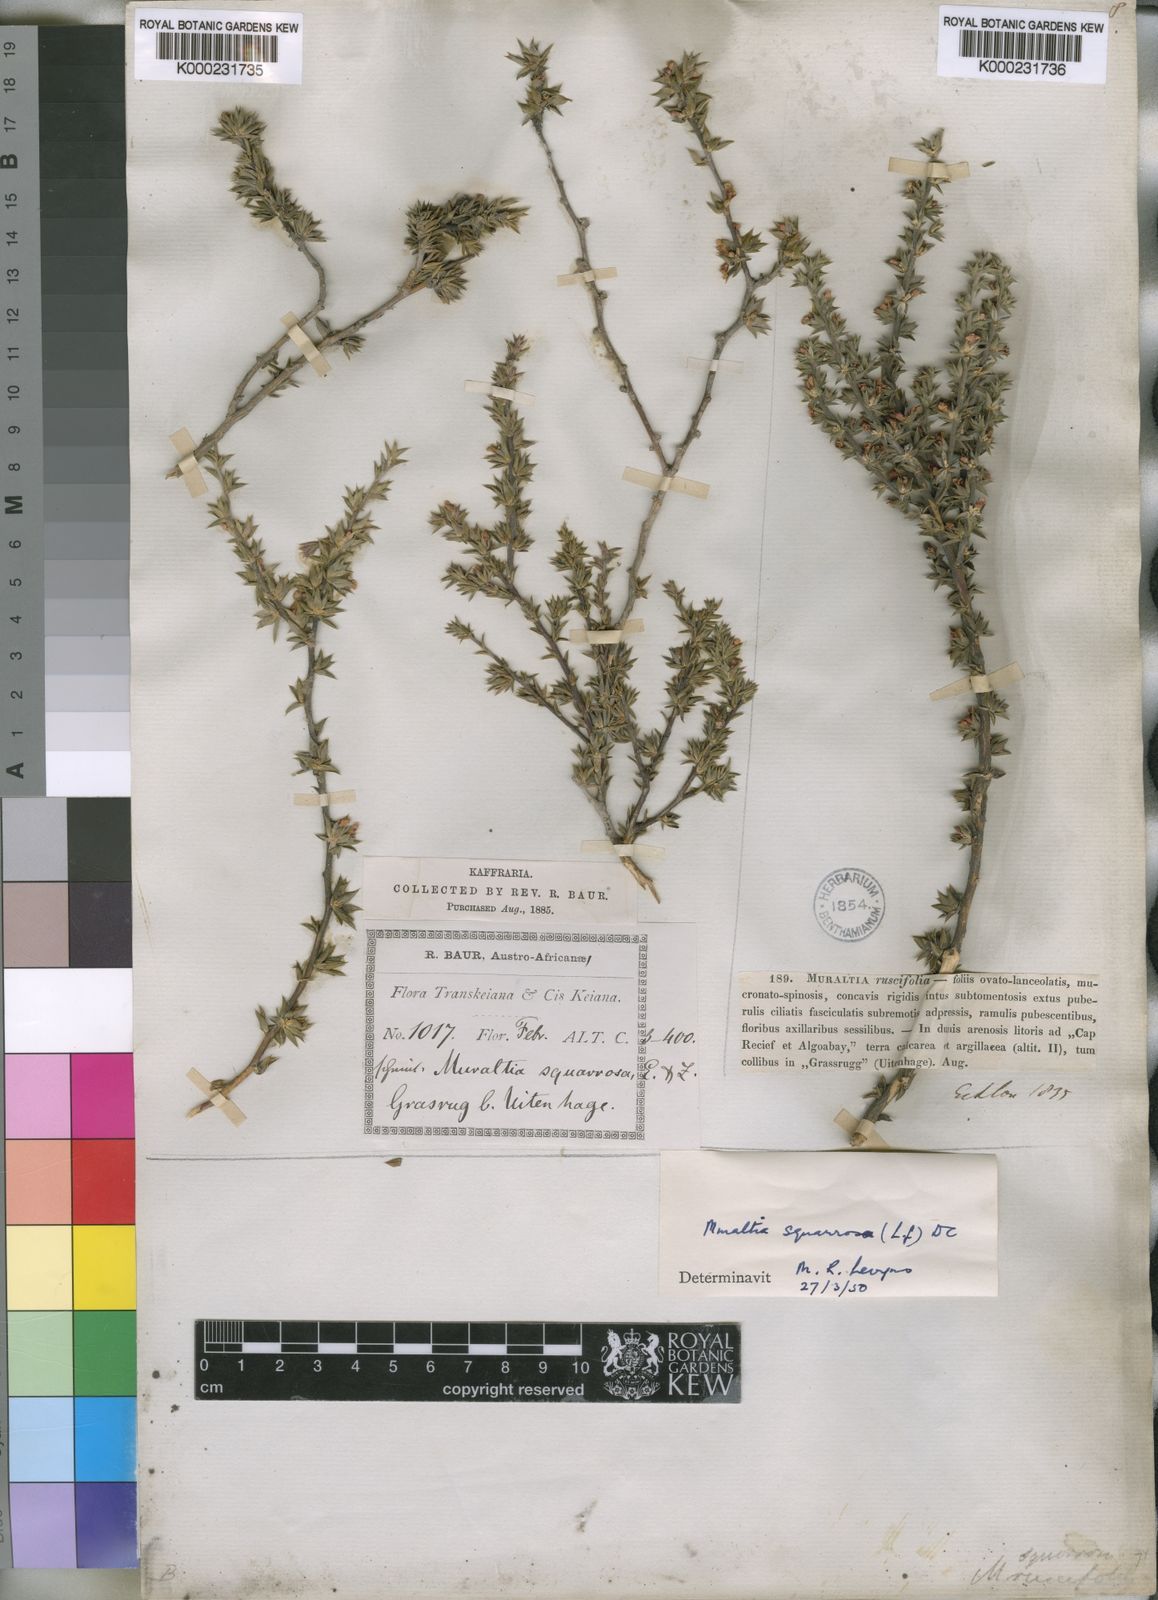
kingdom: Plantae
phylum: Tracheophyta
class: Magnoliopsida
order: Fabales
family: Polygalaceae
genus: Muraltia
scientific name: Muraltia
